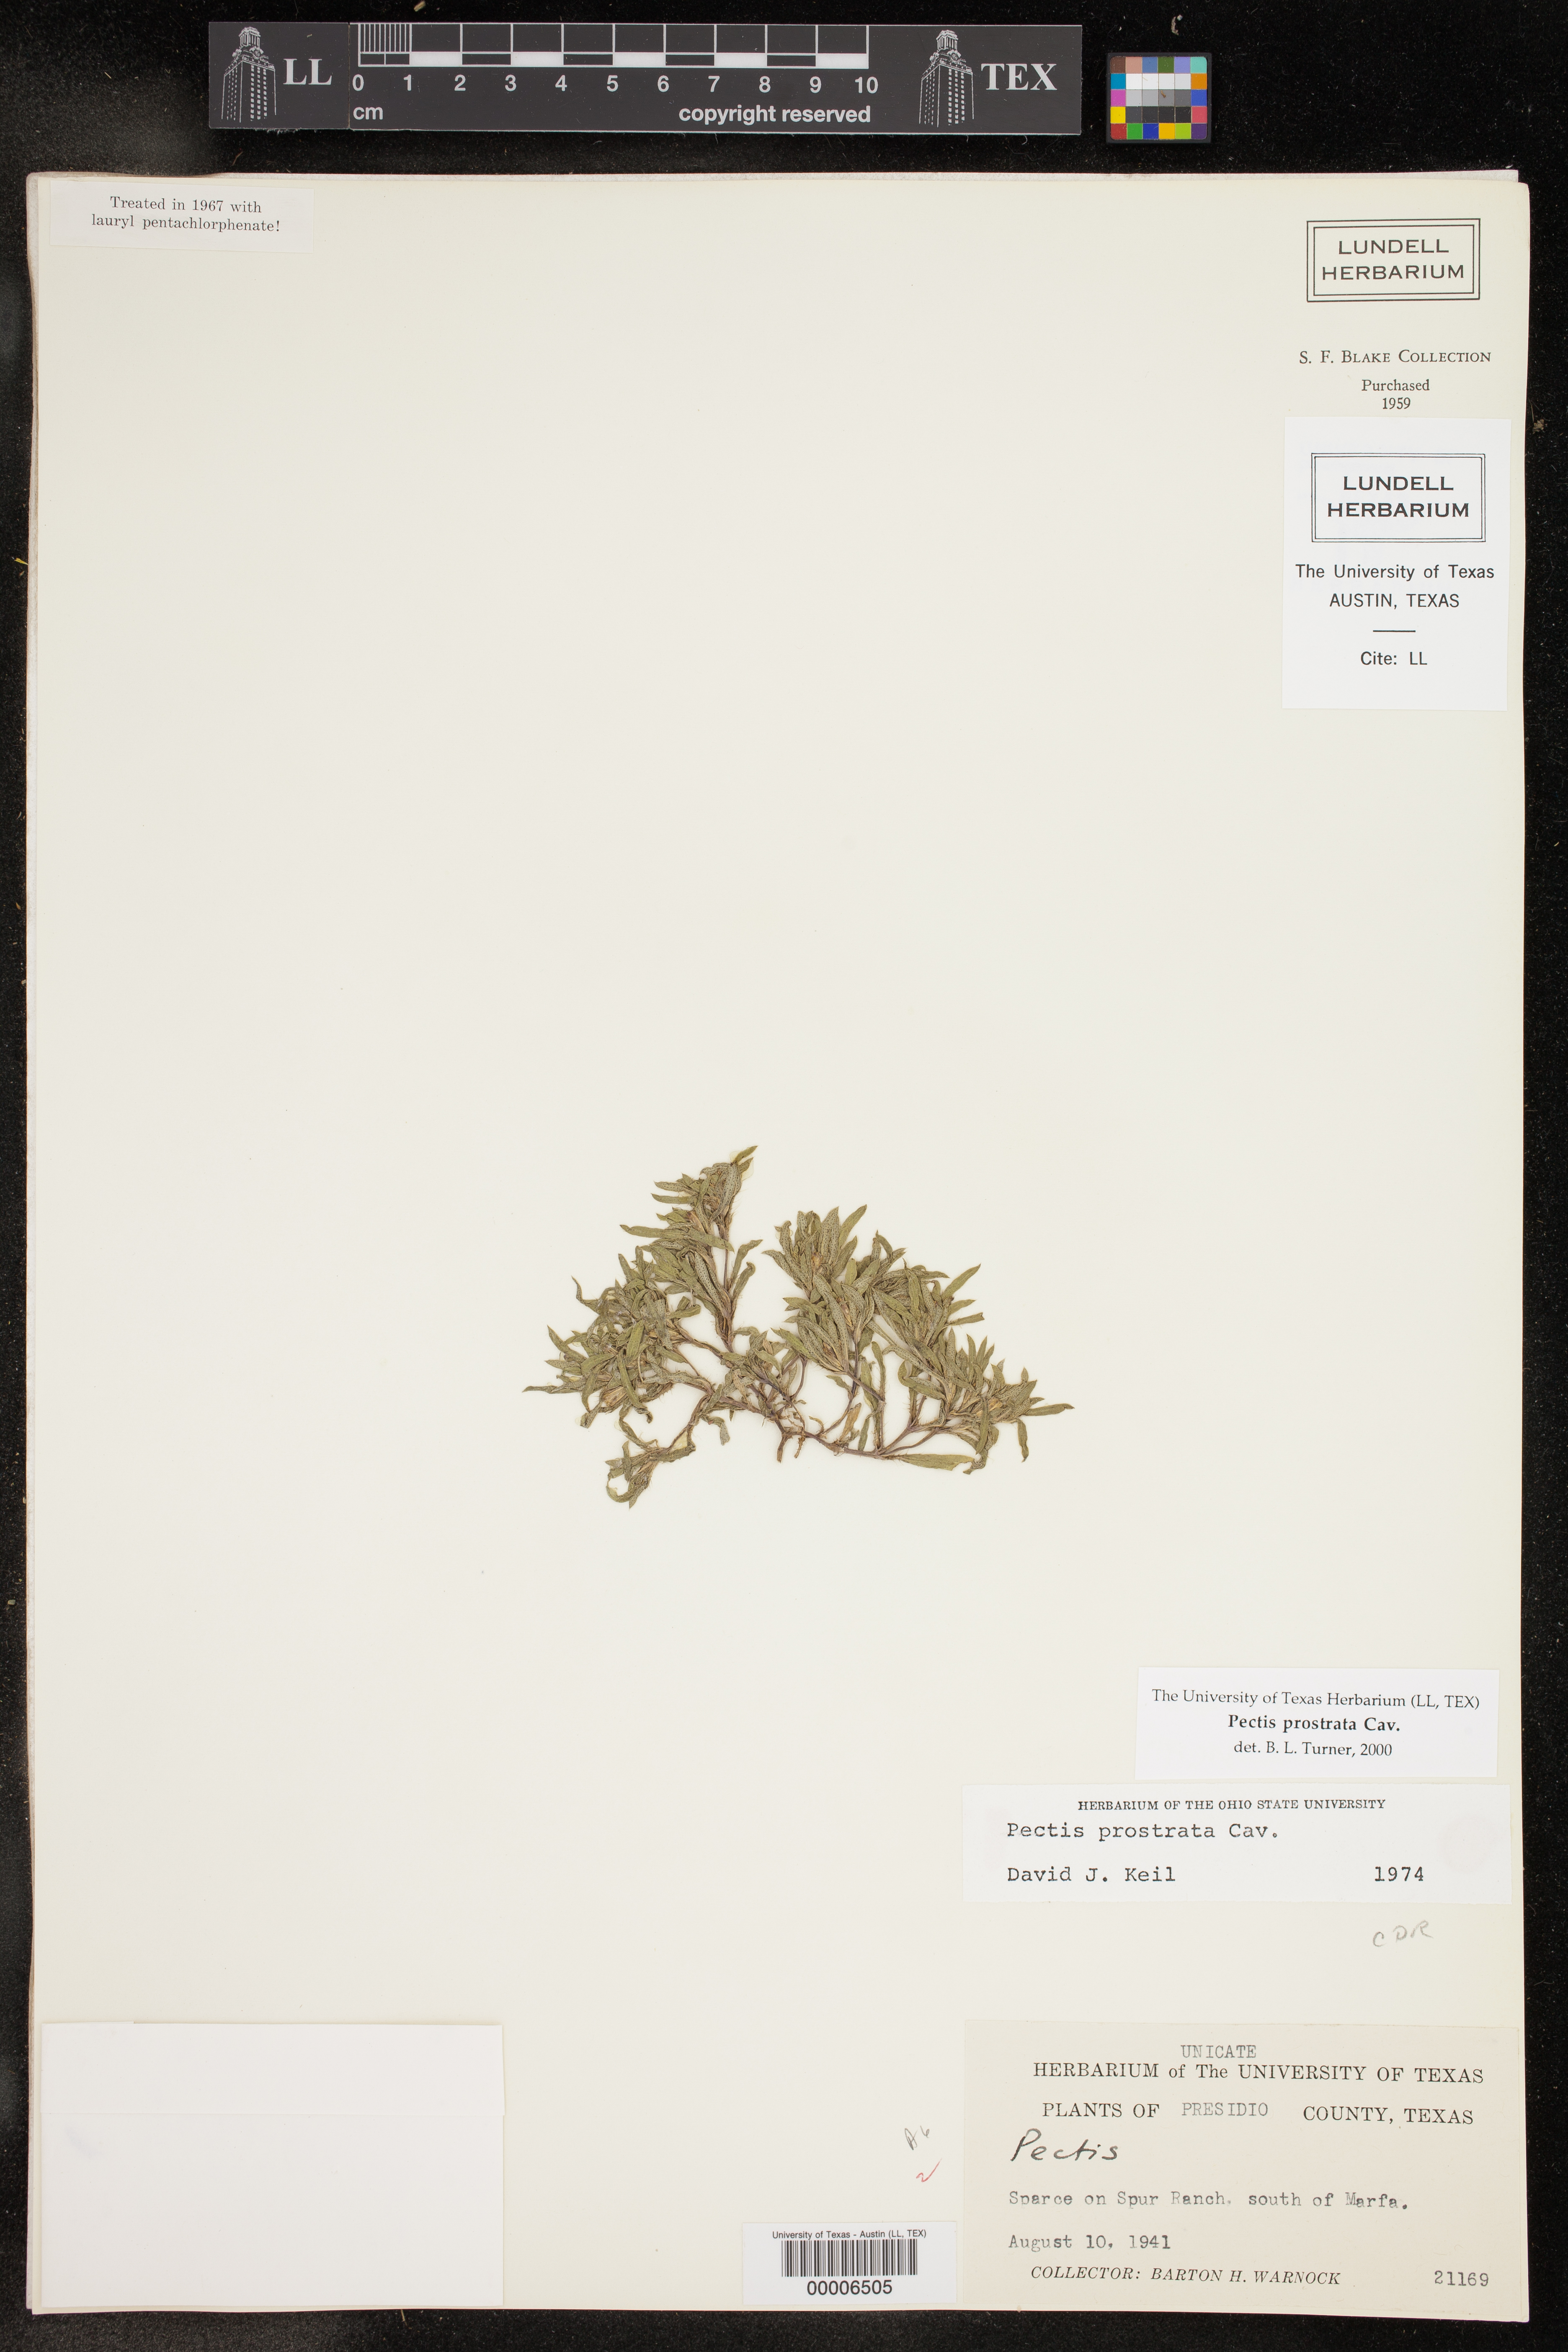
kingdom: Plantae
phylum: Tracheophyta
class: Magnoliopsida
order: Asterales
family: Asteraceae
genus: Pectis
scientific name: Pectis prostrata
